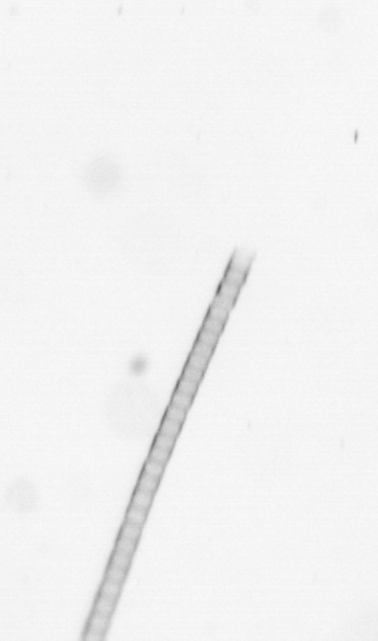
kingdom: Chromista
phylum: Ochrophyta
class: Bacillariophyceae
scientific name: Bacillariophyceae
